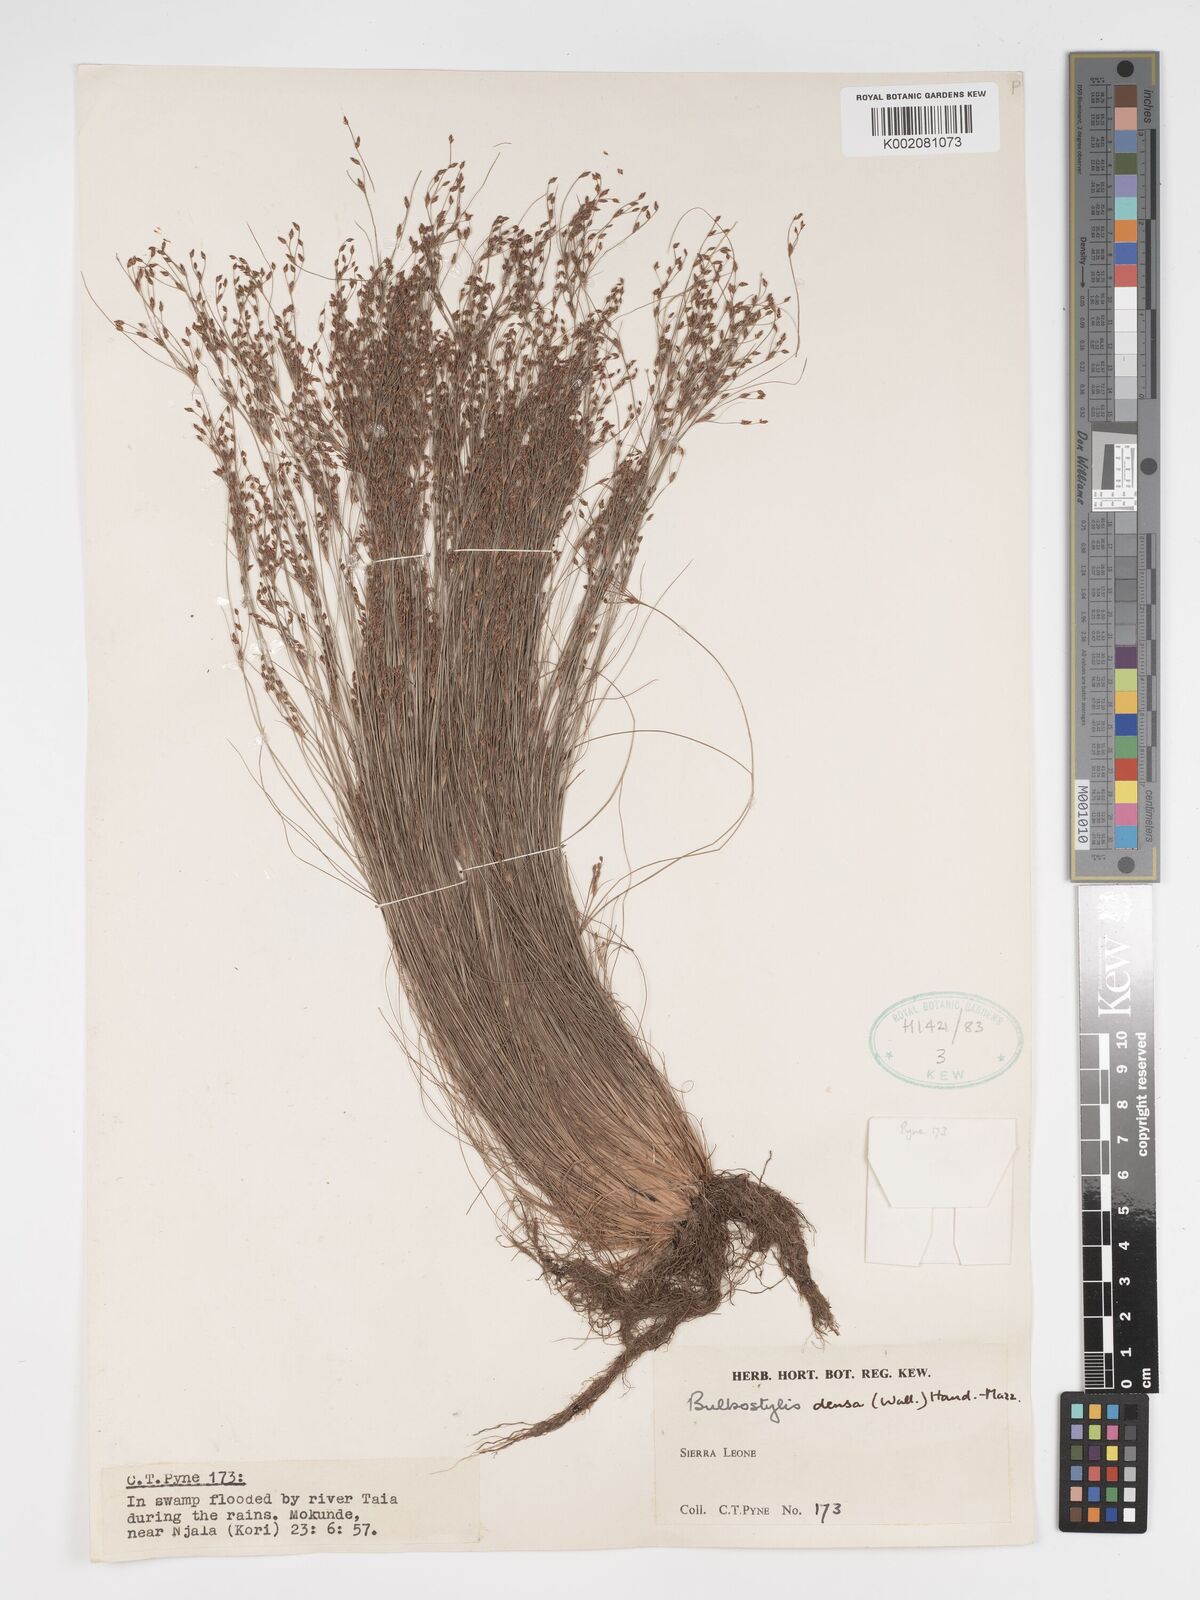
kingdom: Plantae
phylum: Tracheophyta
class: Liliopsida
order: Poales
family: Cyperaceae
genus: Bulbostylis
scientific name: Bulbostylis densa
